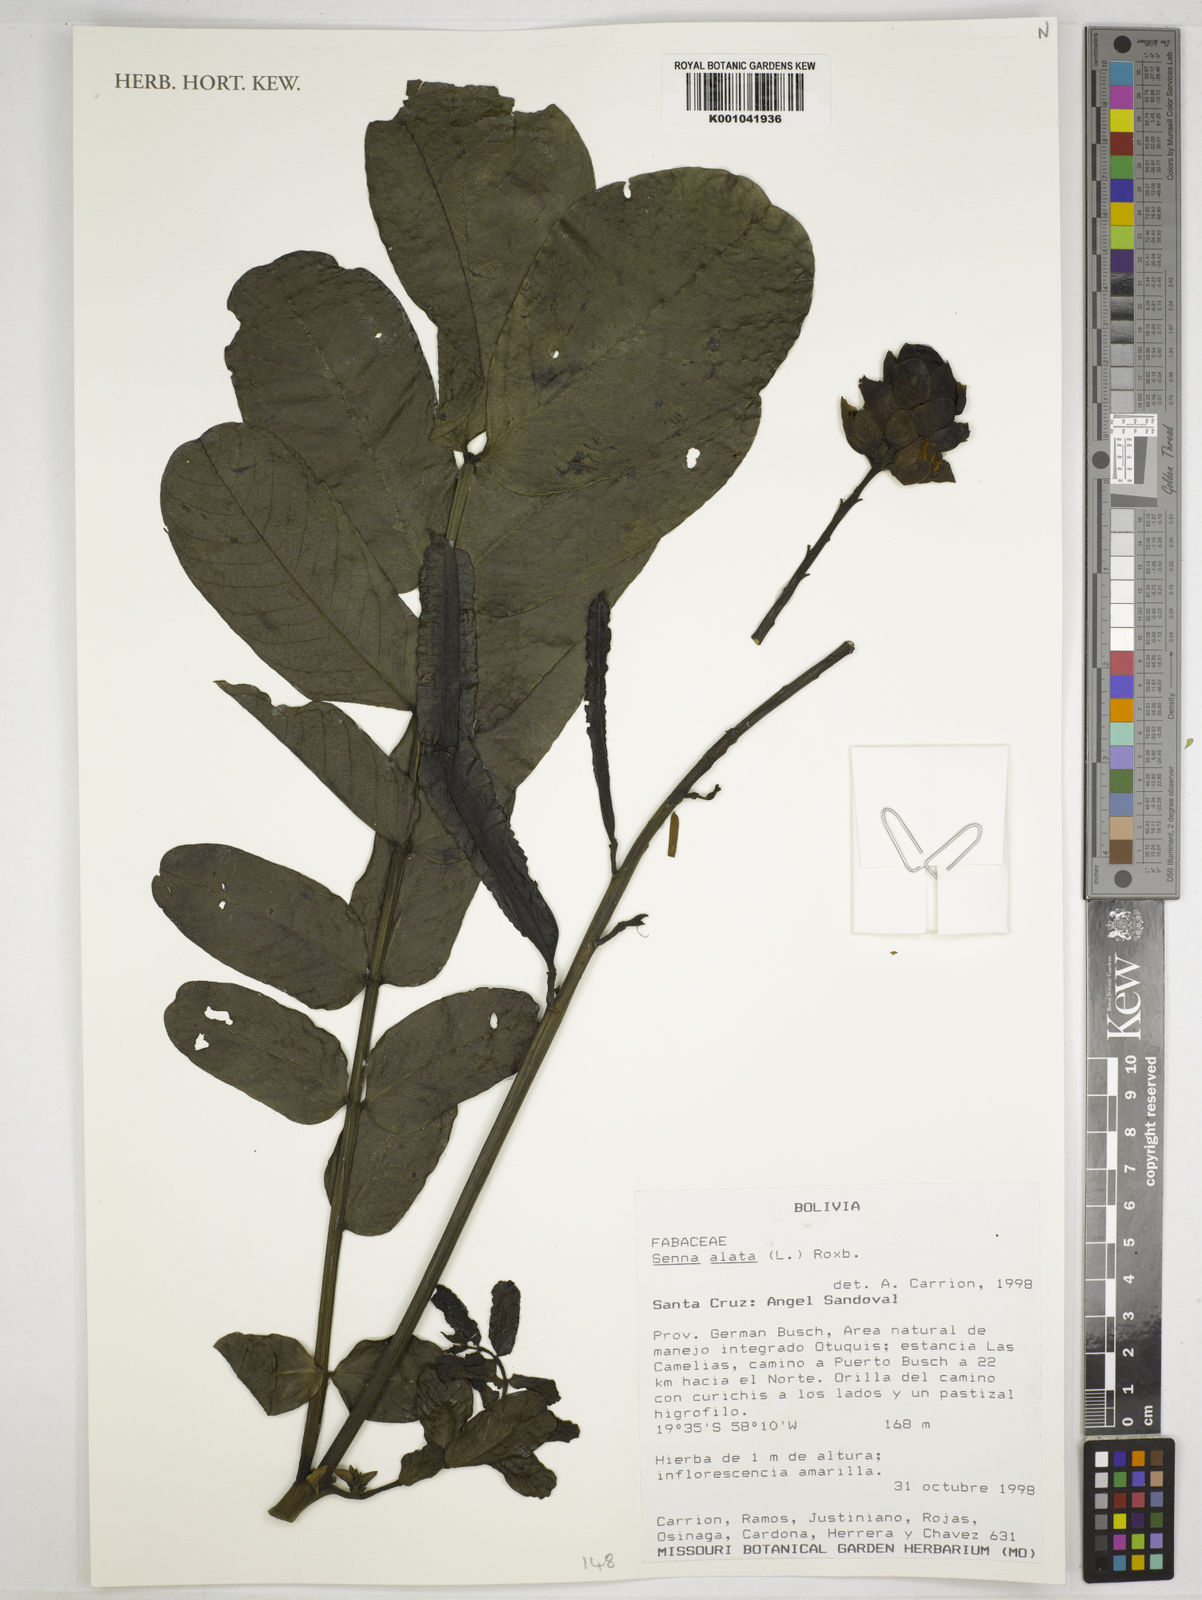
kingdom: Plantae
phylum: Tracheophyta
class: Magnoliopsida
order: Fabales
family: Fabaceae
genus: Senna
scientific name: Senna alata
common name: Emperor's candlesticks
